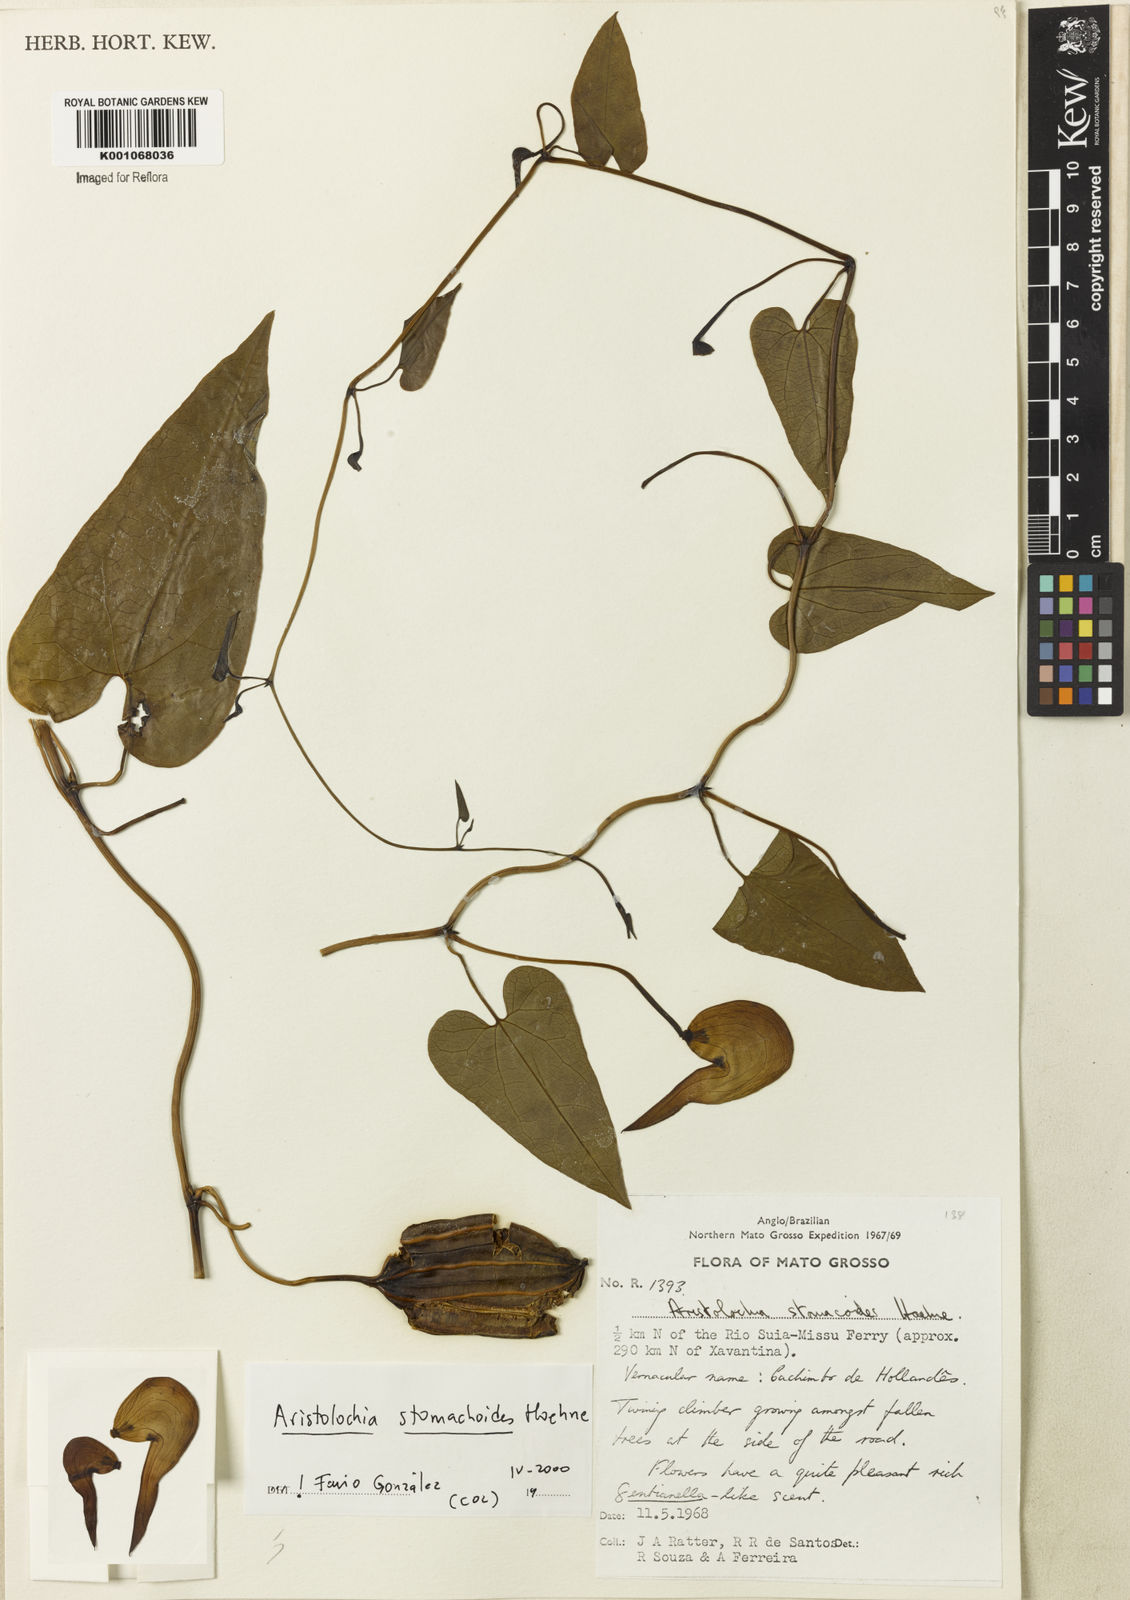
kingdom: Plantae
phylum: Tracheophyta
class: Magnoliopsida
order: Piperales
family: Aristolochiaceae
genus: Aristolochia
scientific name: Aristolochia
